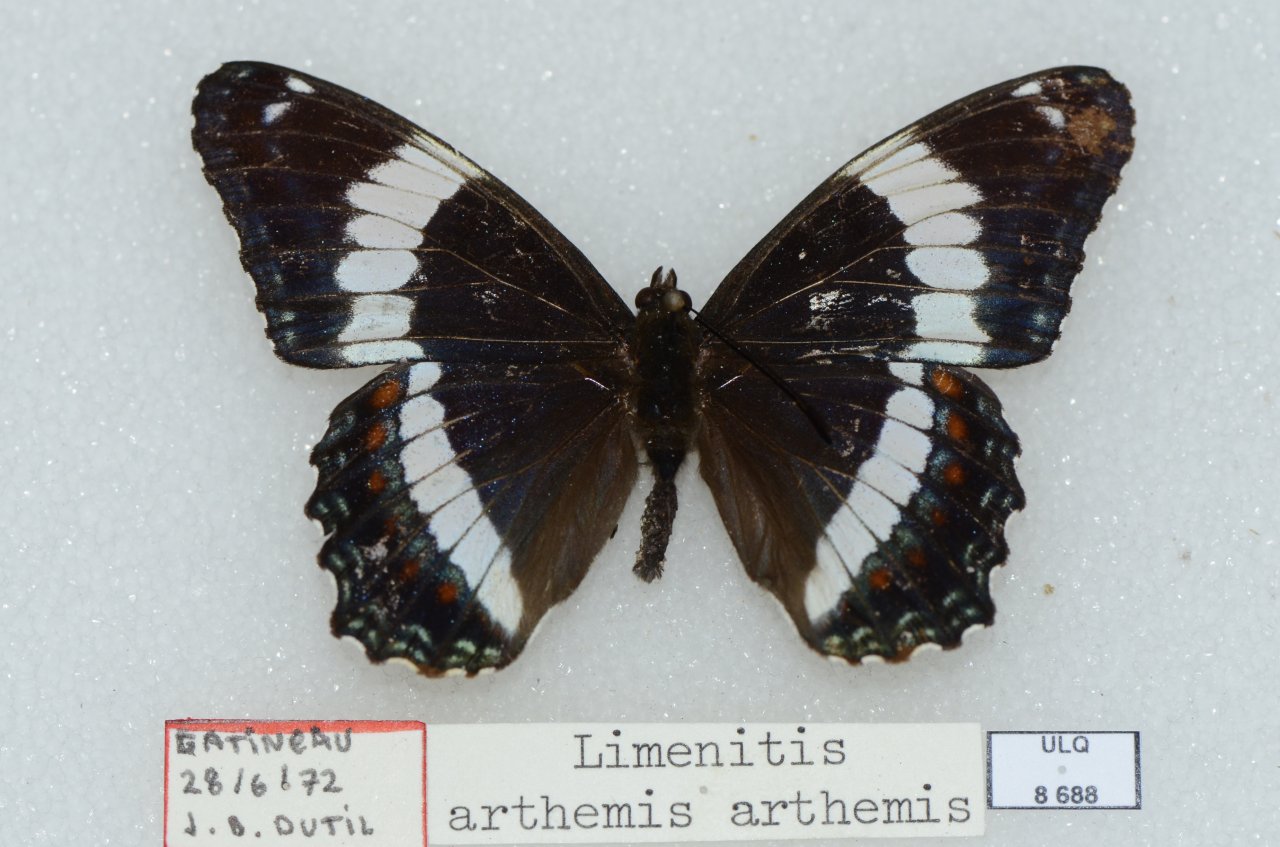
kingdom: Animalia
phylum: Arthropoda
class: Insecta
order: Lepidoptera
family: Nymphalidae
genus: Limenitis
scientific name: Limenitis arthemis
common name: Red-spotted Admiral
